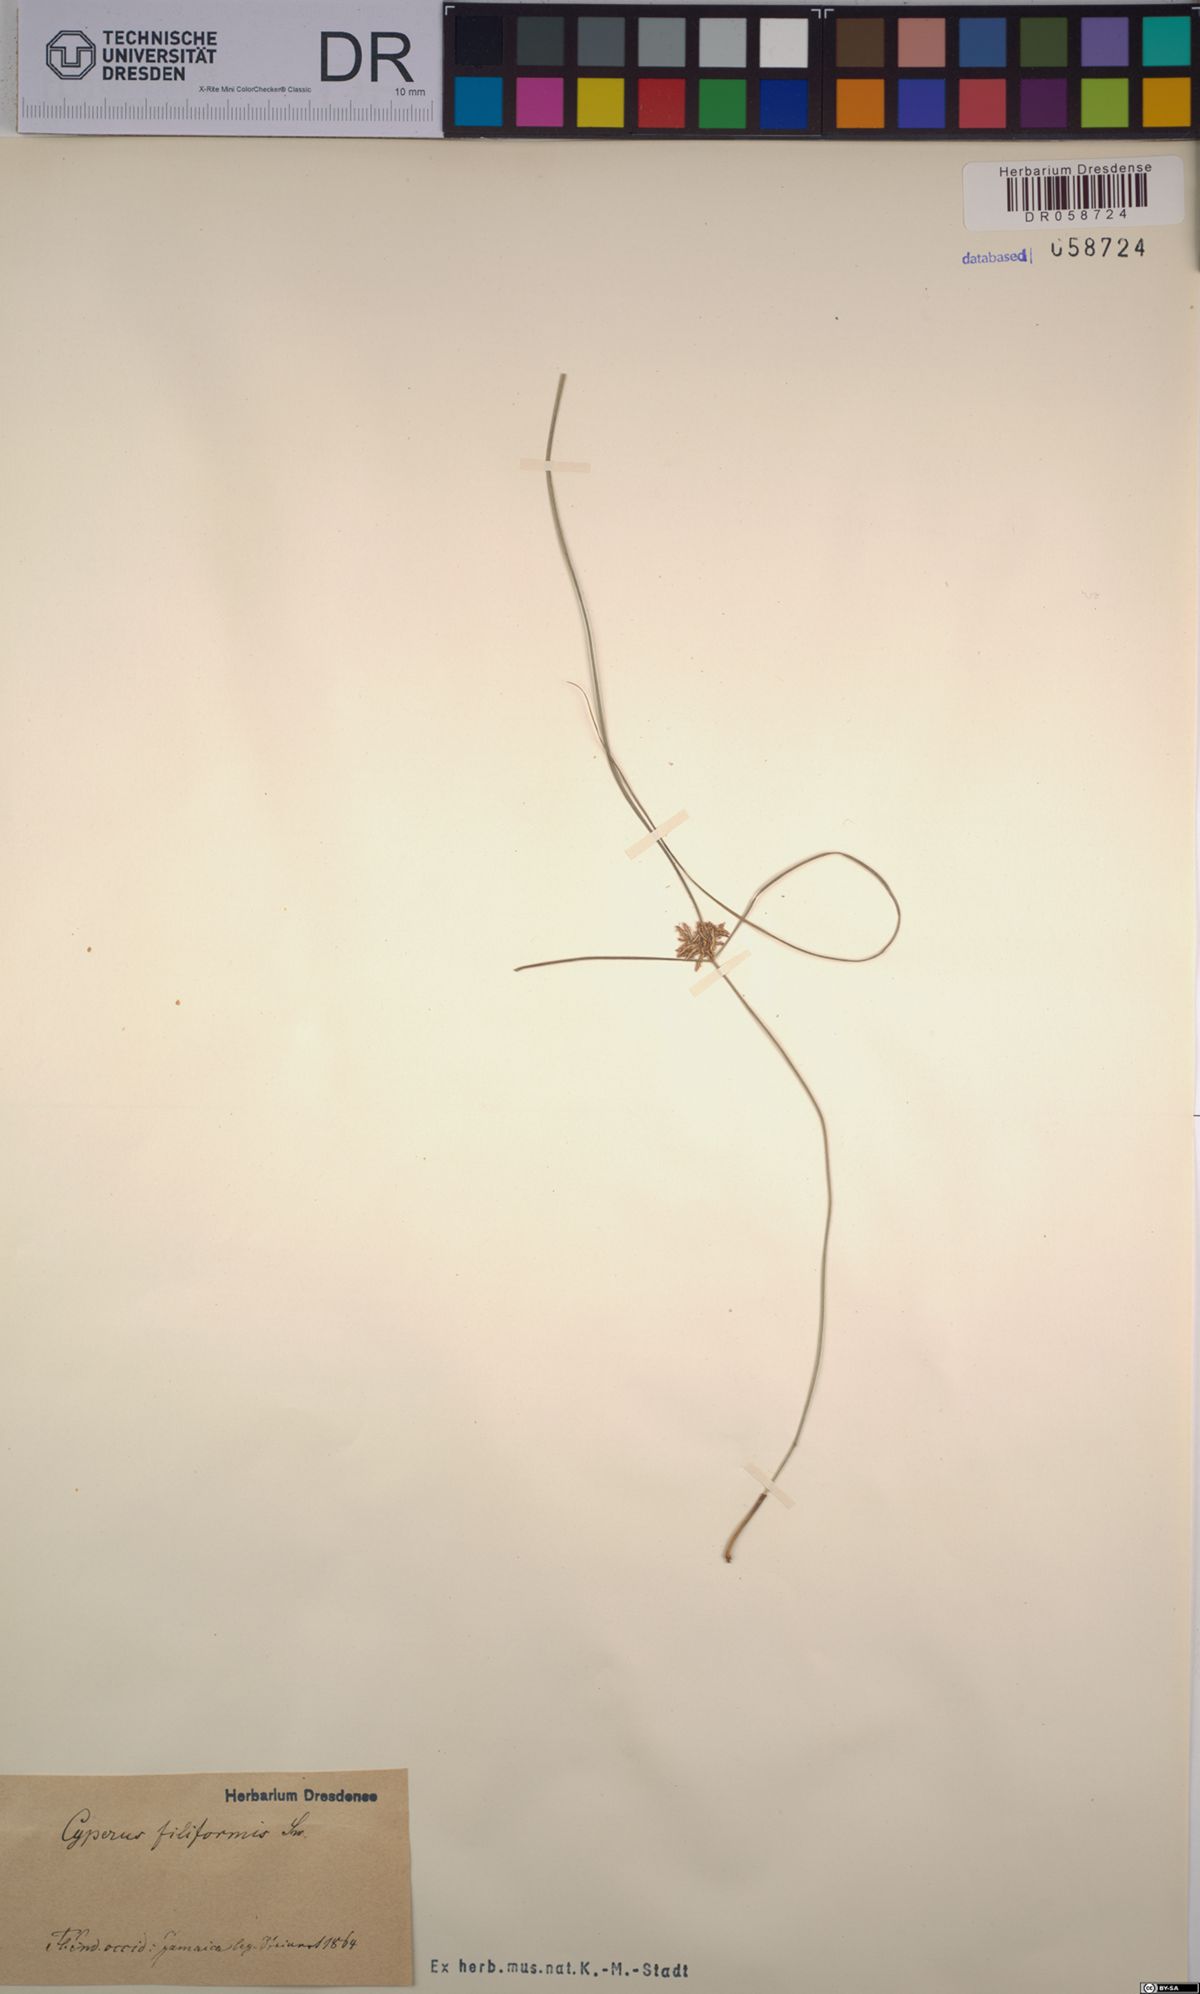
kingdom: Plantae
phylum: Tracheophyta
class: Liliopsida
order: Poales
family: Cyperaceae
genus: Cyperus
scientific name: Cyperus filiformis
